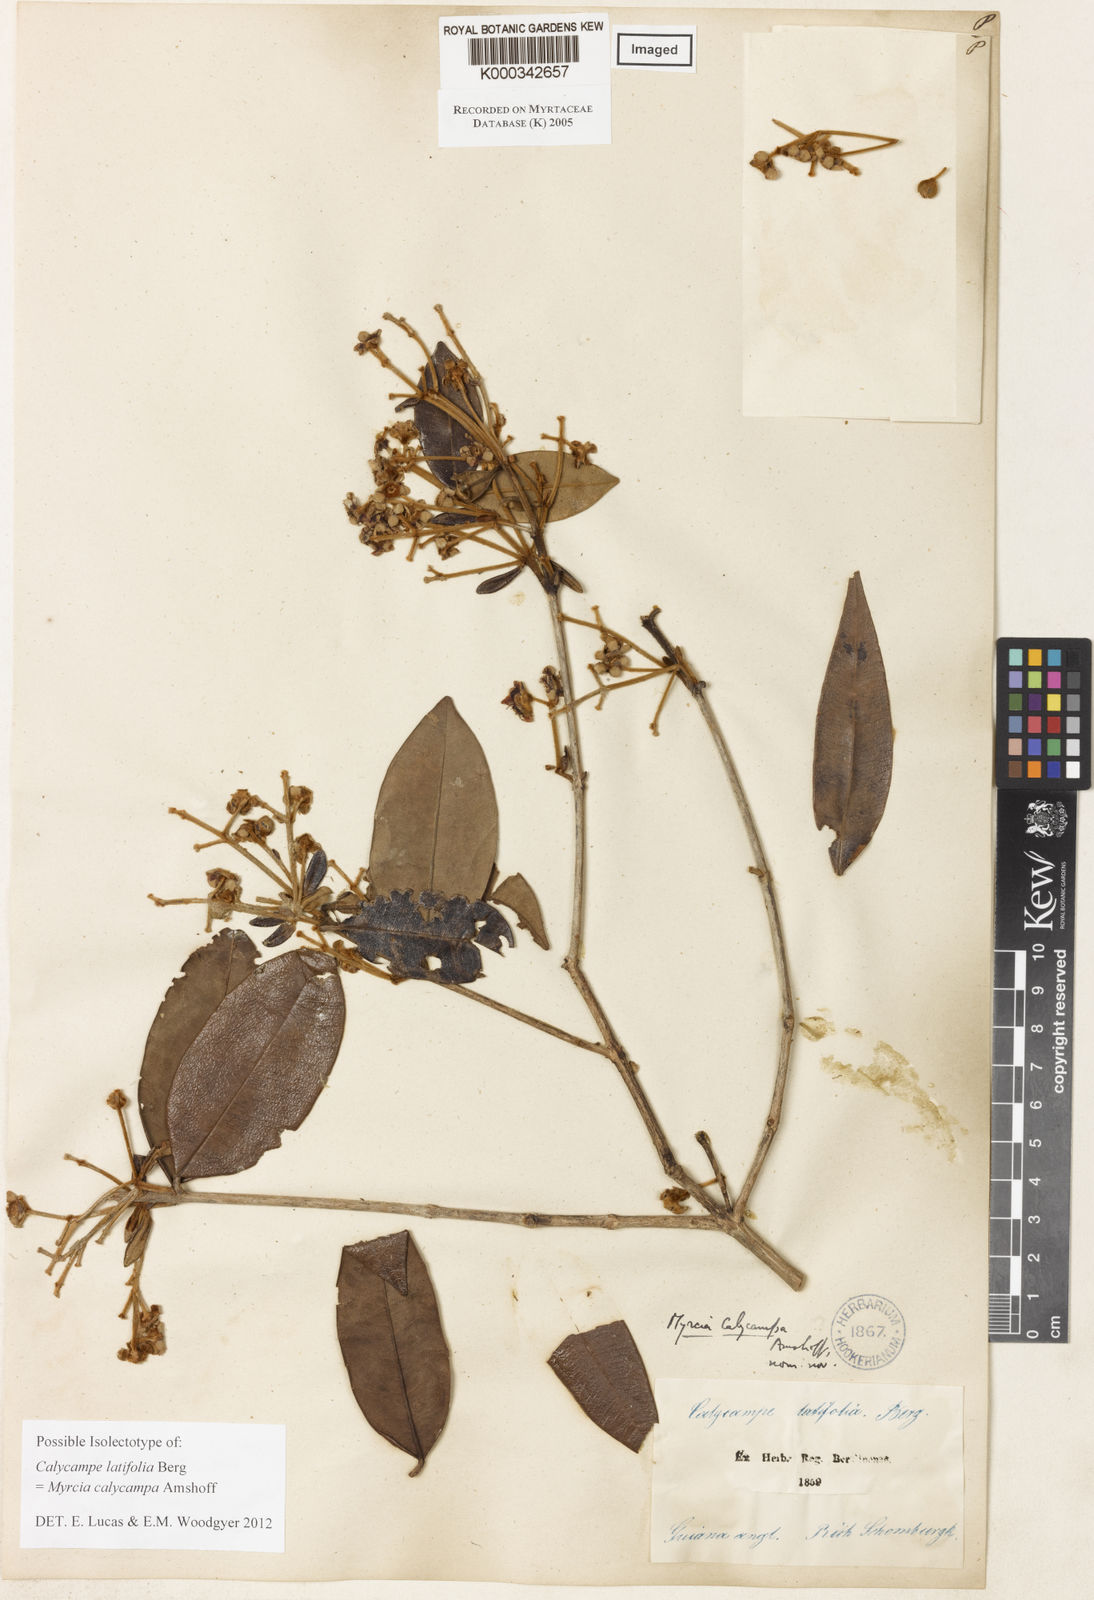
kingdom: Plantae
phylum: Tracheophyta
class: Magnoliopsida
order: Myrtales
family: Myrtaceae
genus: Myrcia
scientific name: Myrcia calycampa
